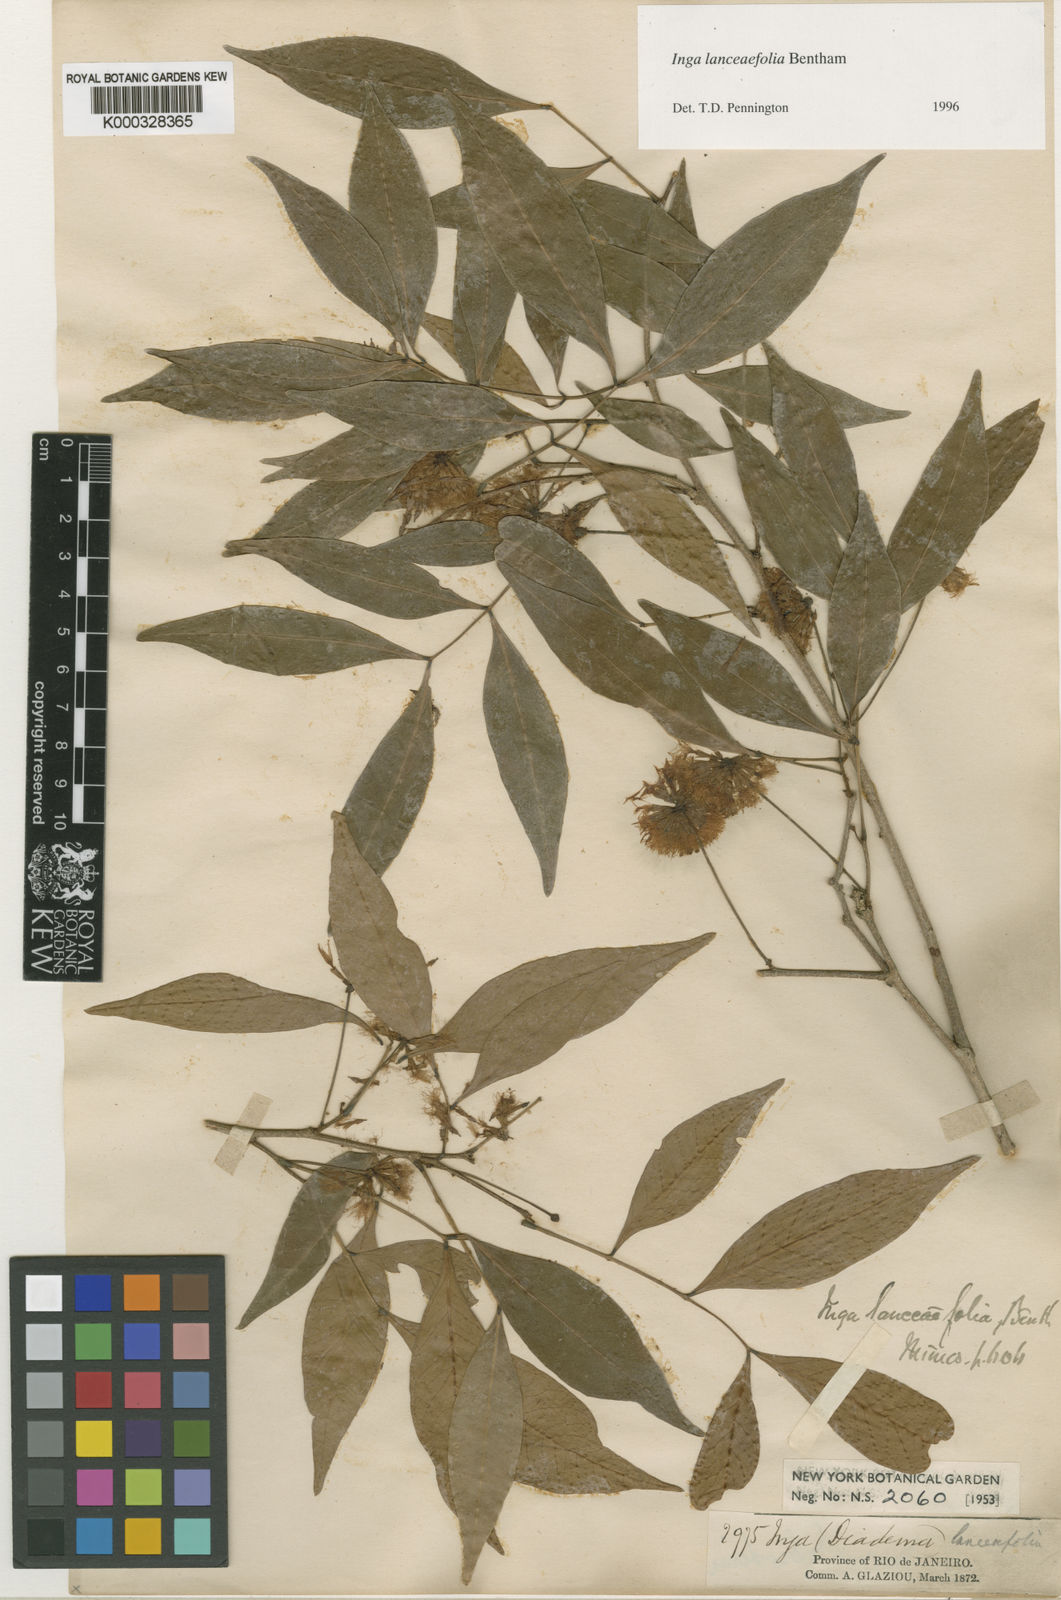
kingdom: Plantae
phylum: Tracheophyta
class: Magnoliopsida
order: Fabales
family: Fabaceae
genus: Inga
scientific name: Inga lanceifolia
